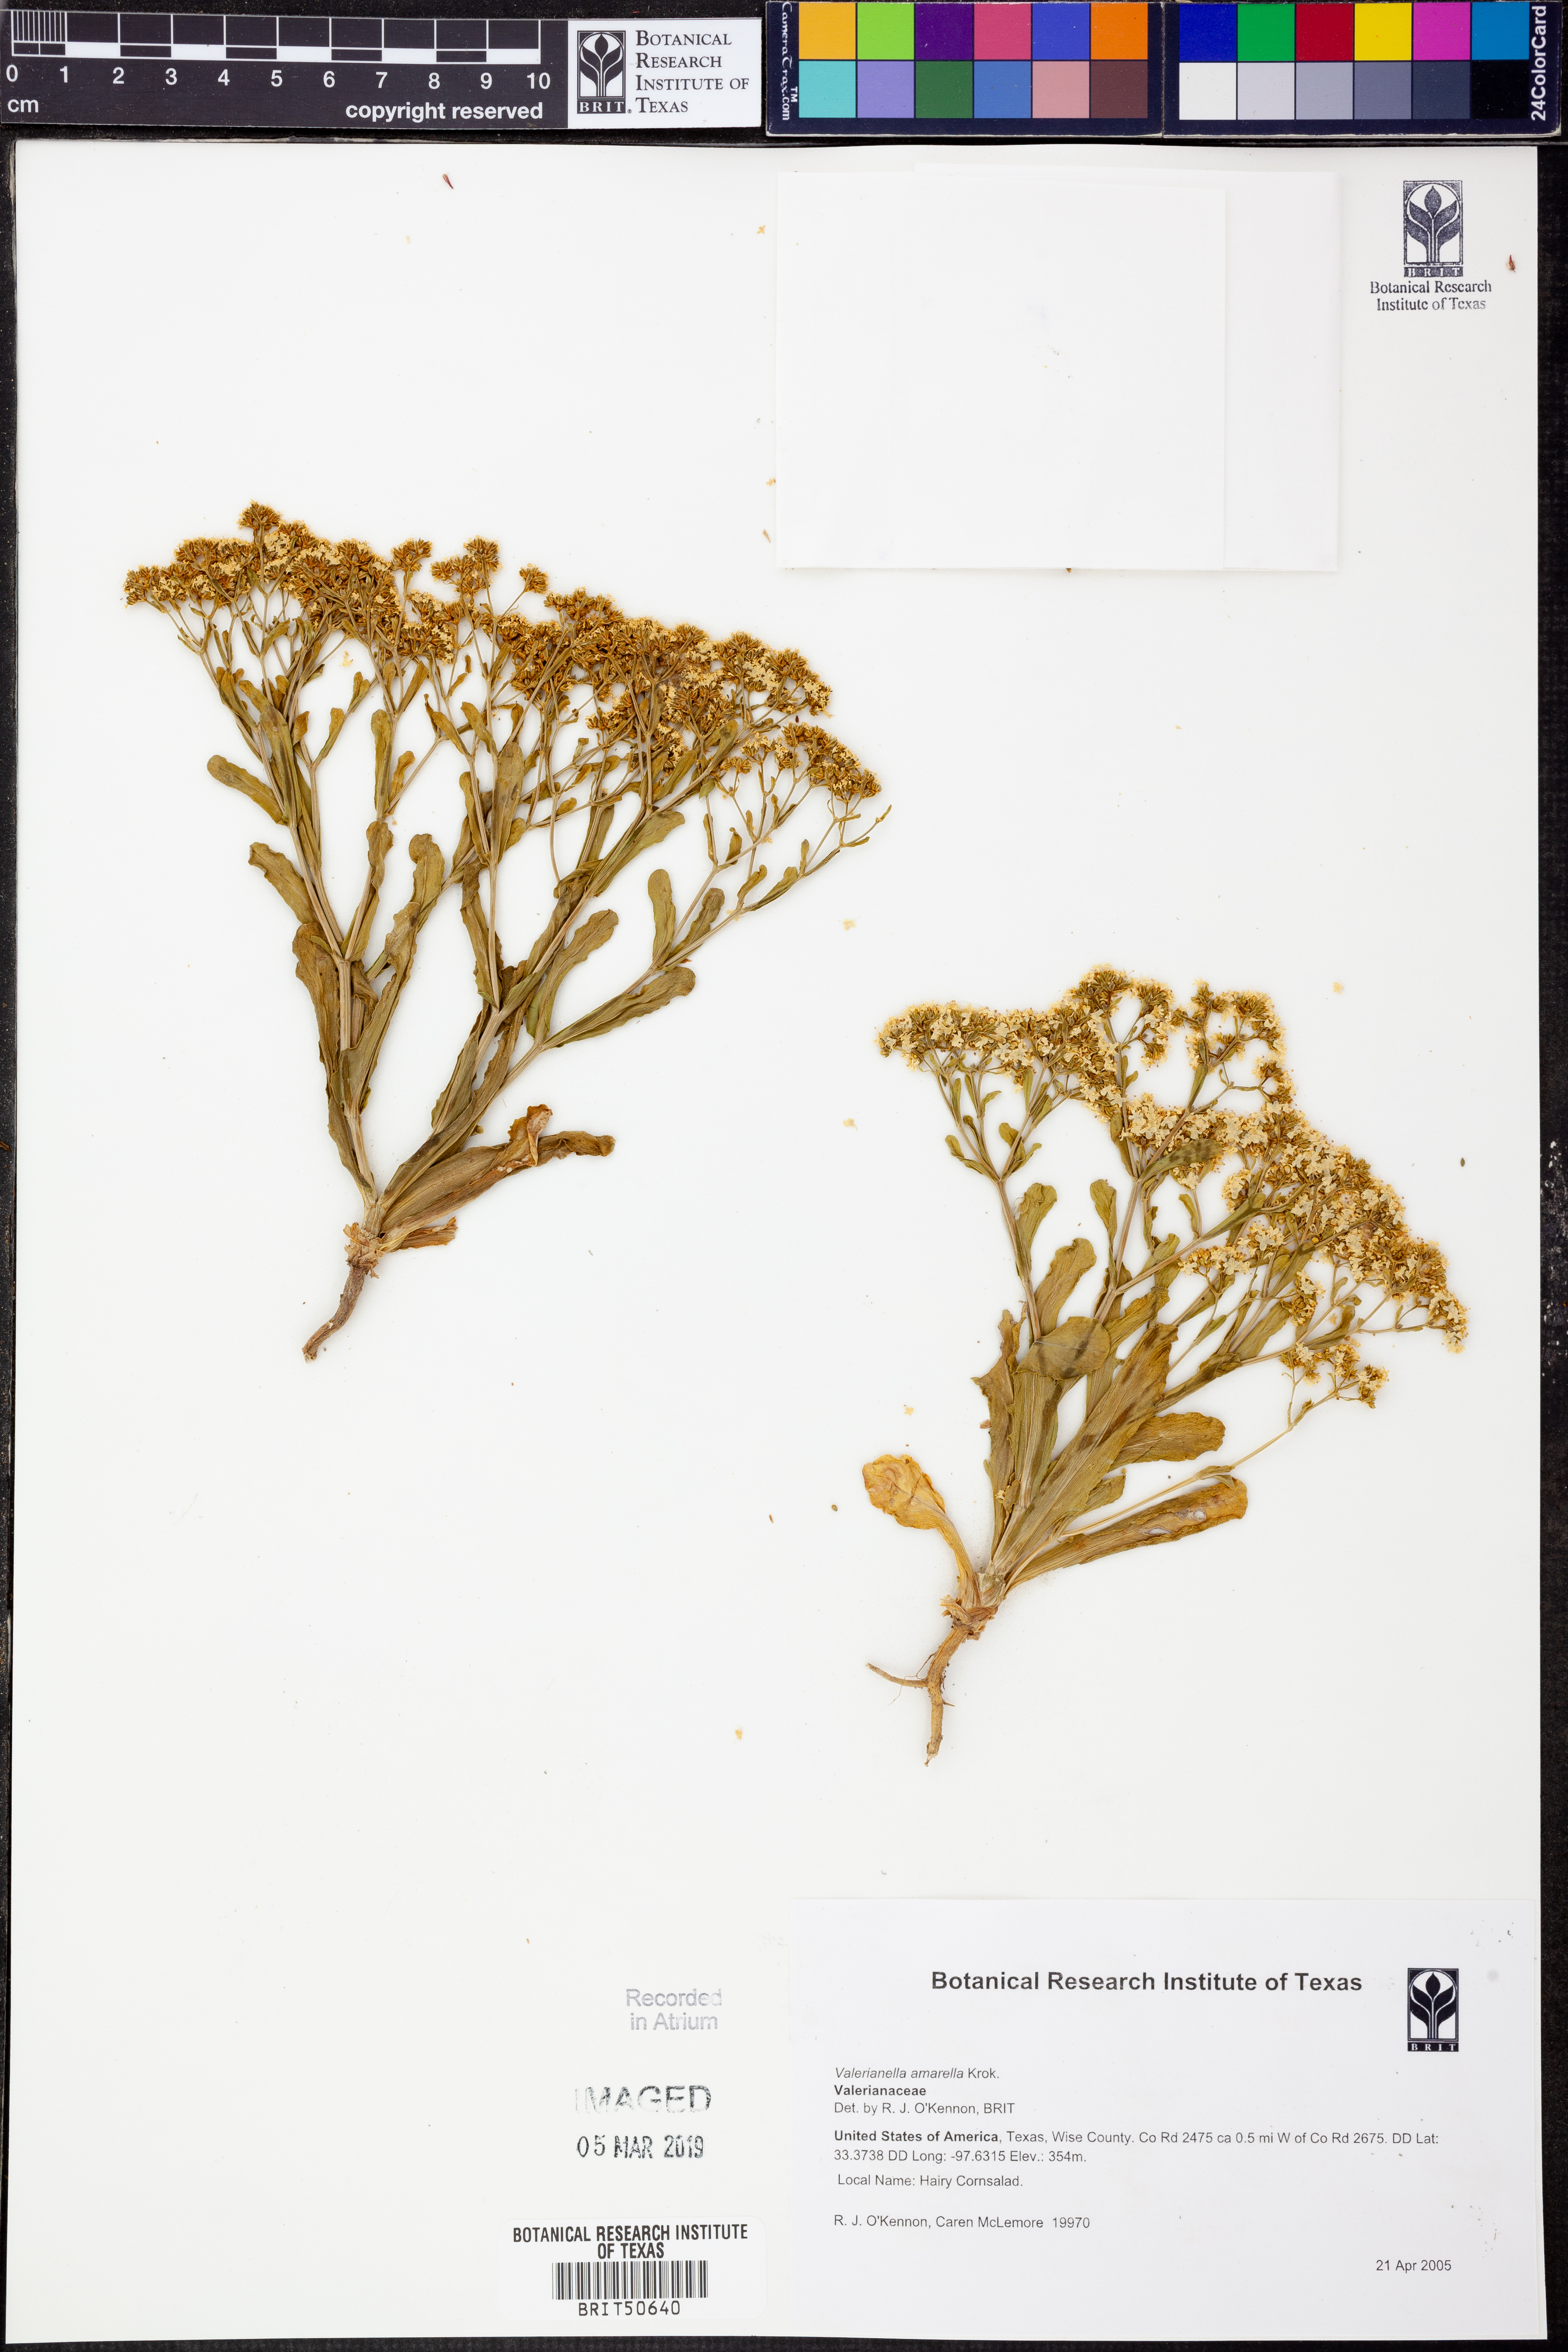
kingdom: Plantae
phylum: Tracheophyta
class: Magnoliopsida
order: Dipsacales
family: Caprifoliaceae
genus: Valerianella
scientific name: Valerianella amarella
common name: Hariy cornsalad
